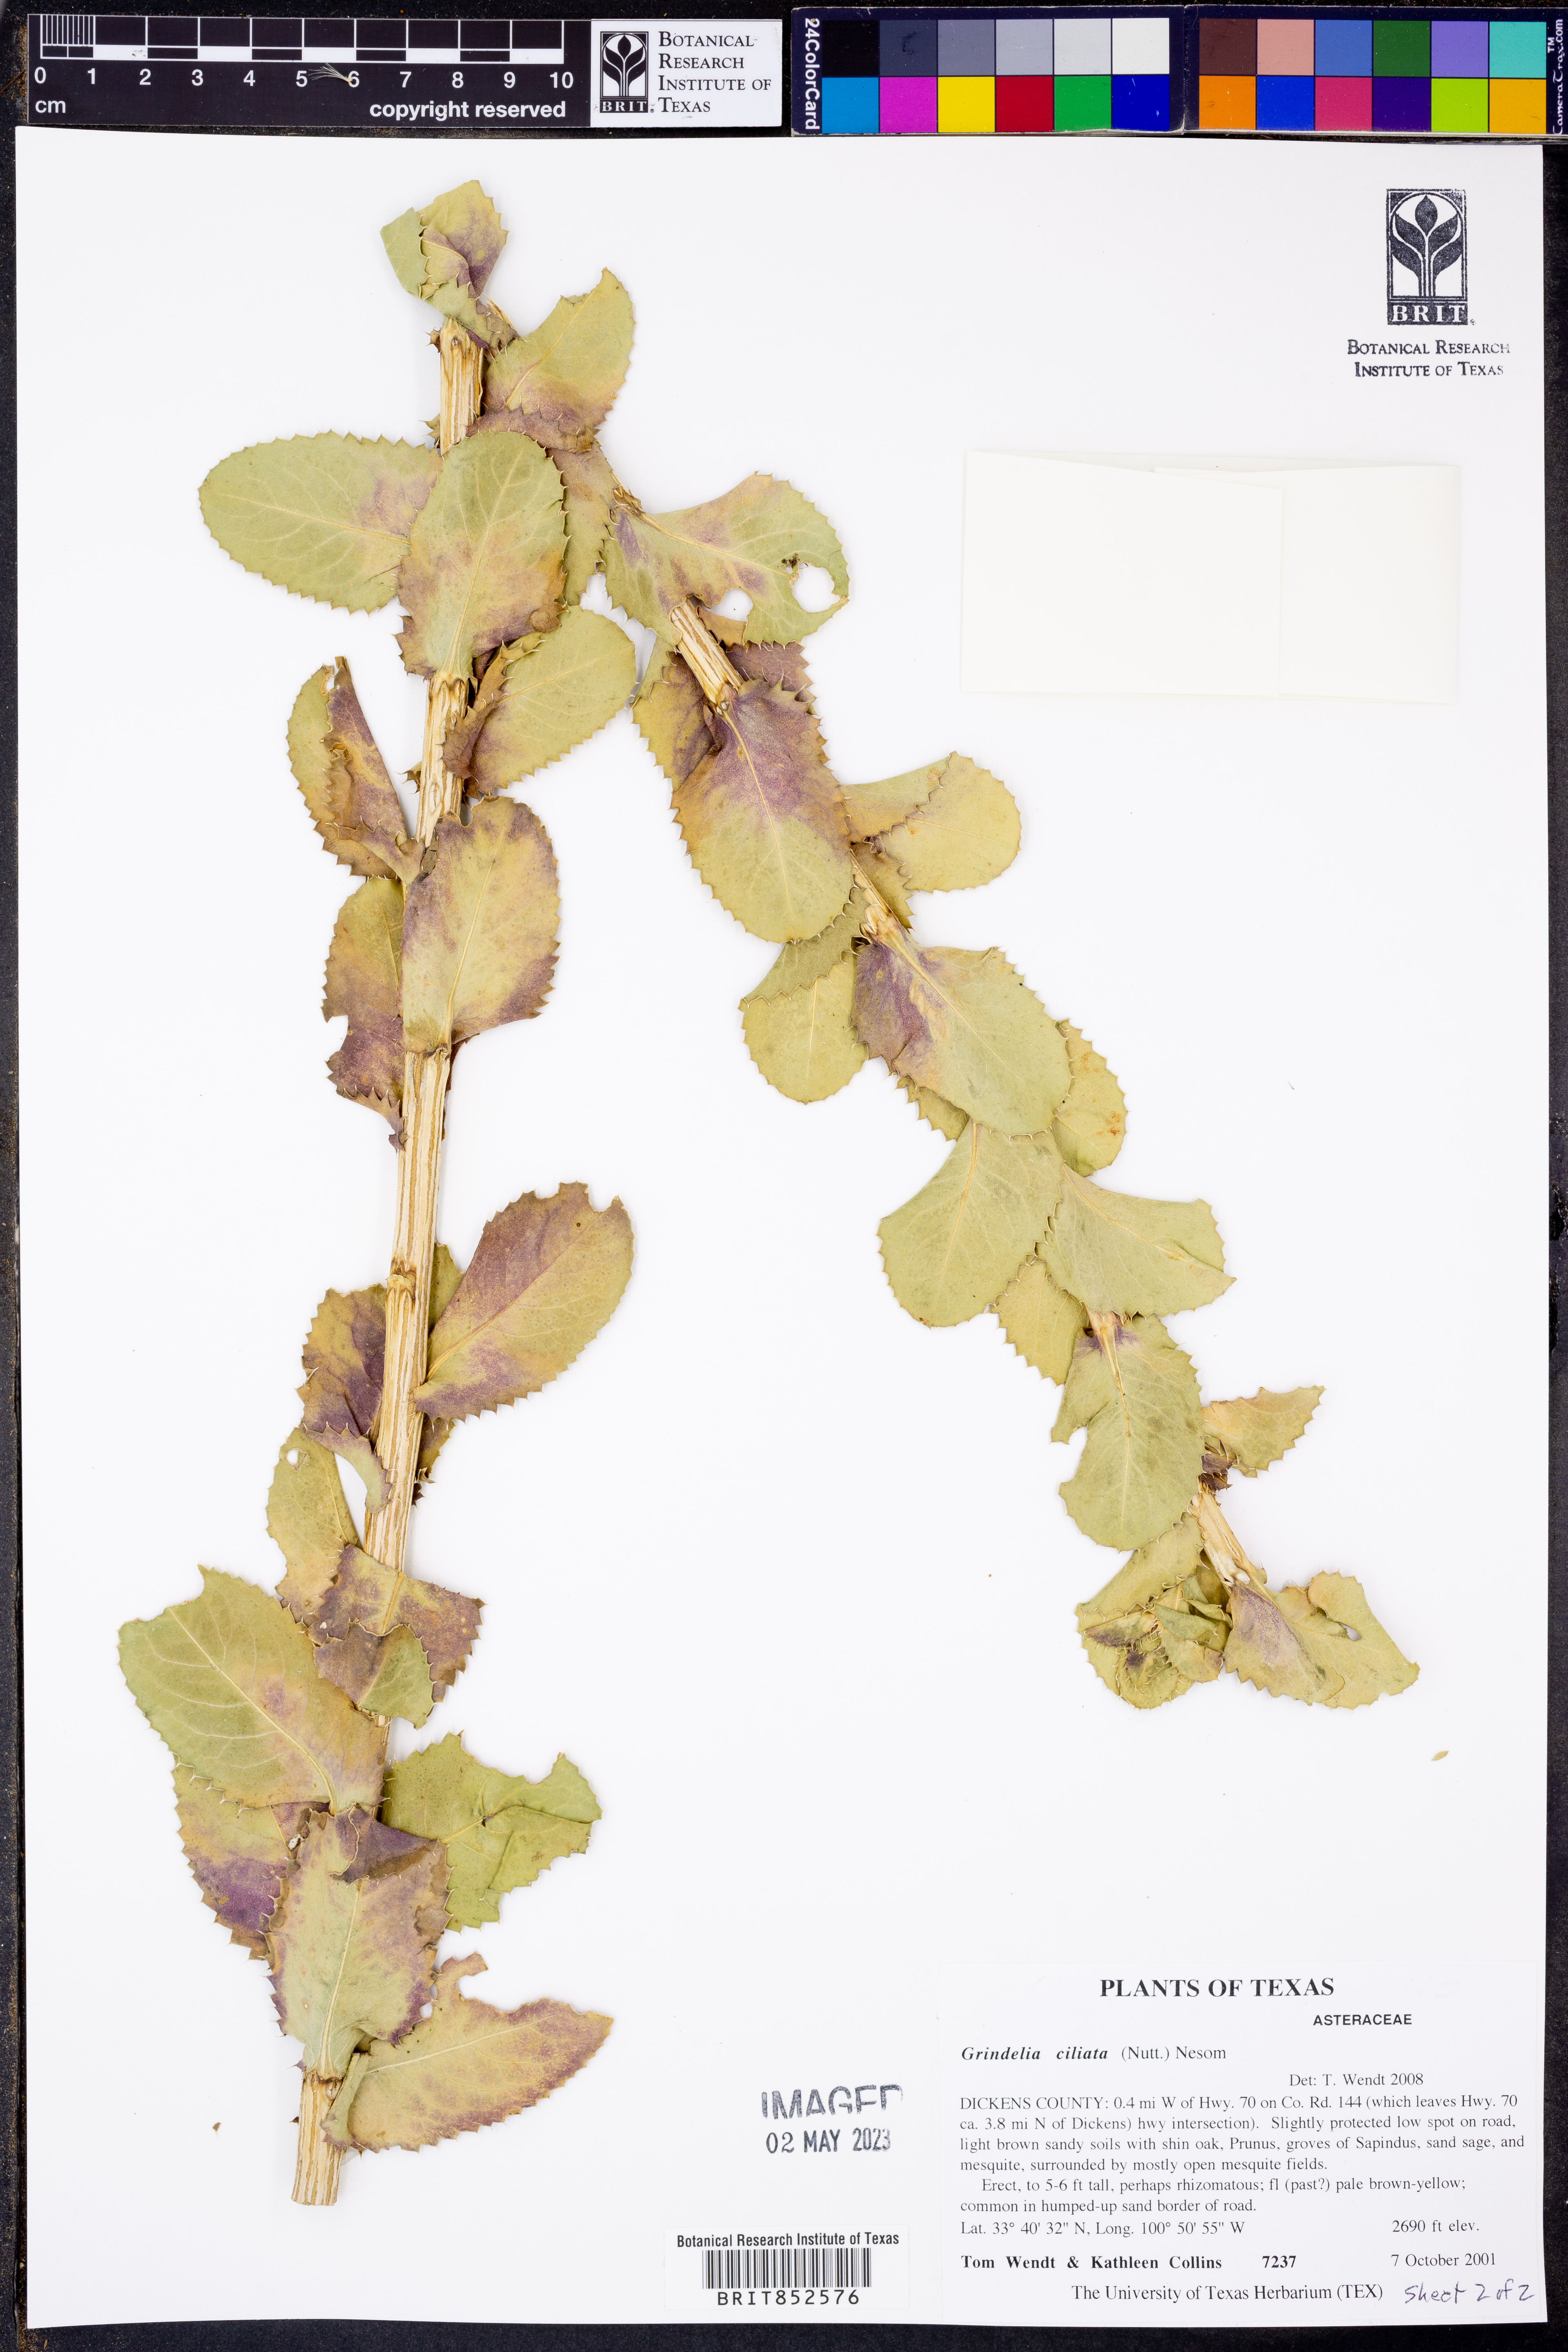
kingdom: Plantae
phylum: Tracheophyta
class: Magnoliopsida
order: Asterales
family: Asteraceae
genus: Grindelia
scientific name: Grindelia ciliata
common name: Goldenweed
